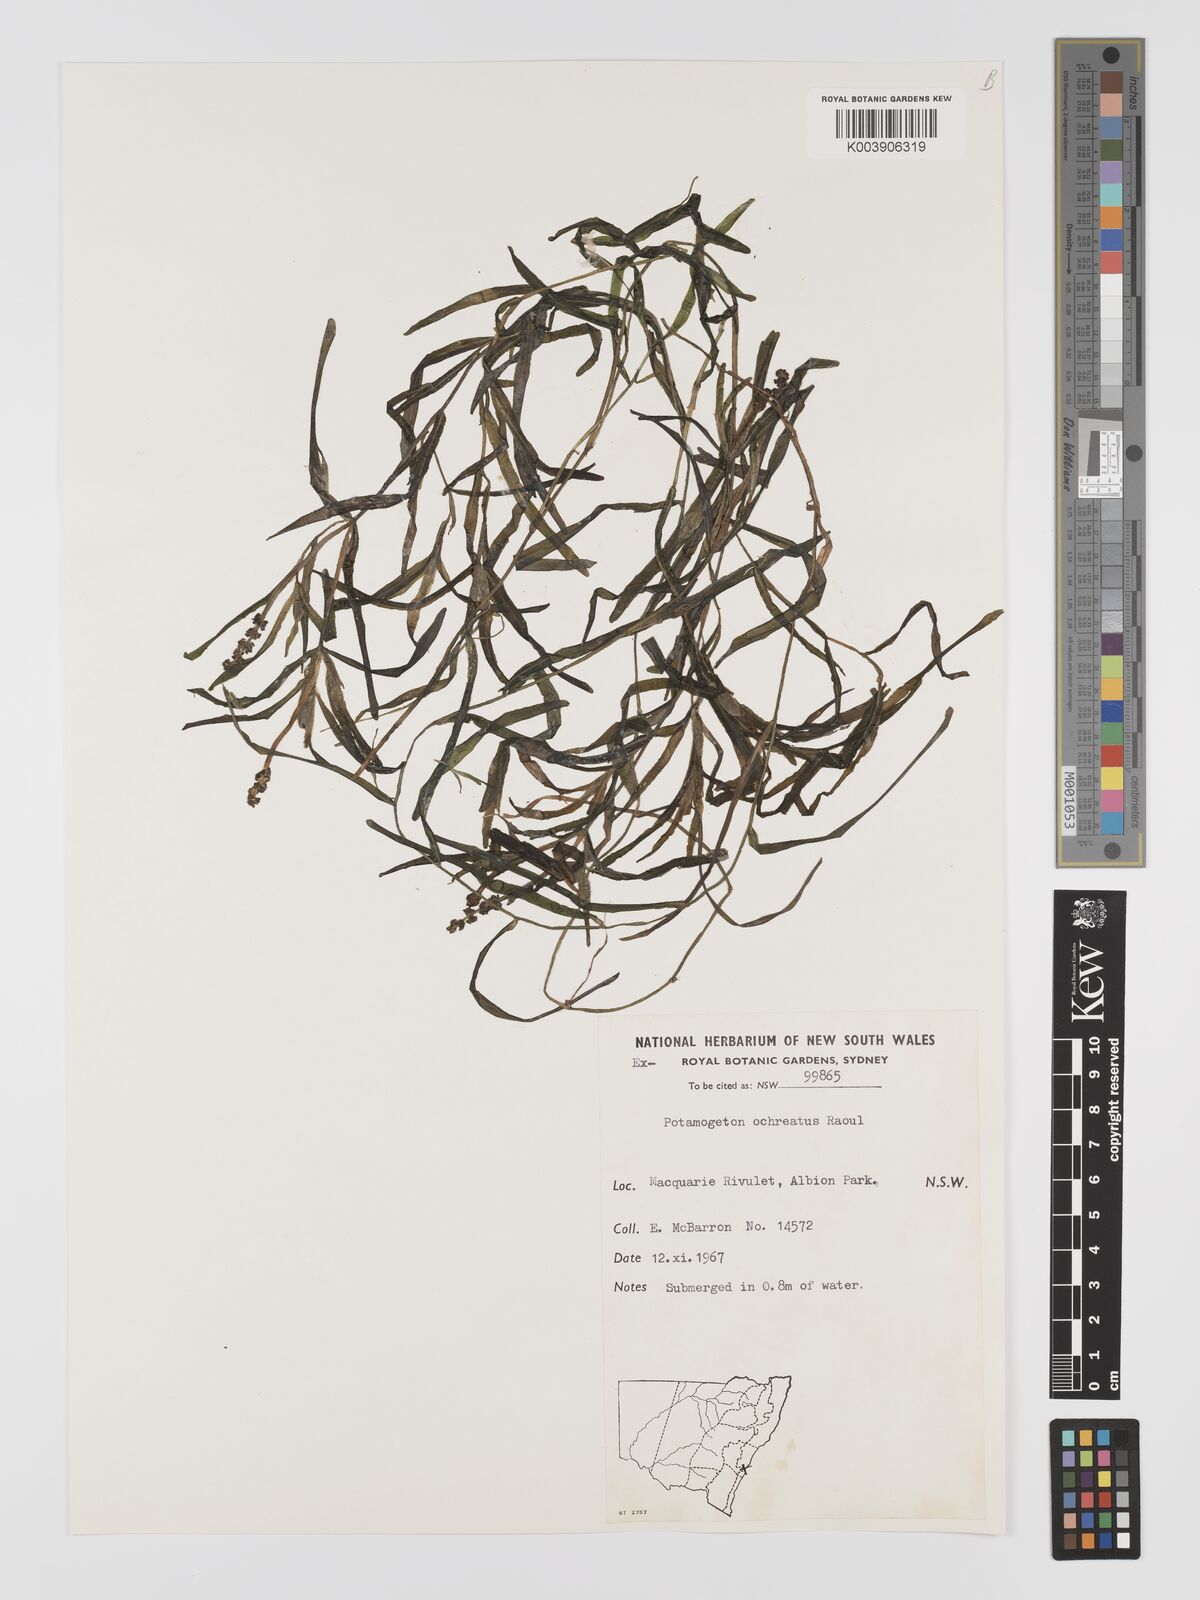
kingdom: Plantae
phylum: Tracheophyta
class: Liliopsida
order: Alismatales
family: Potamogetonaceae
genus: Potamogeton
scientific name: Potamogeton ochreatus
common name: Blunt pondweed
